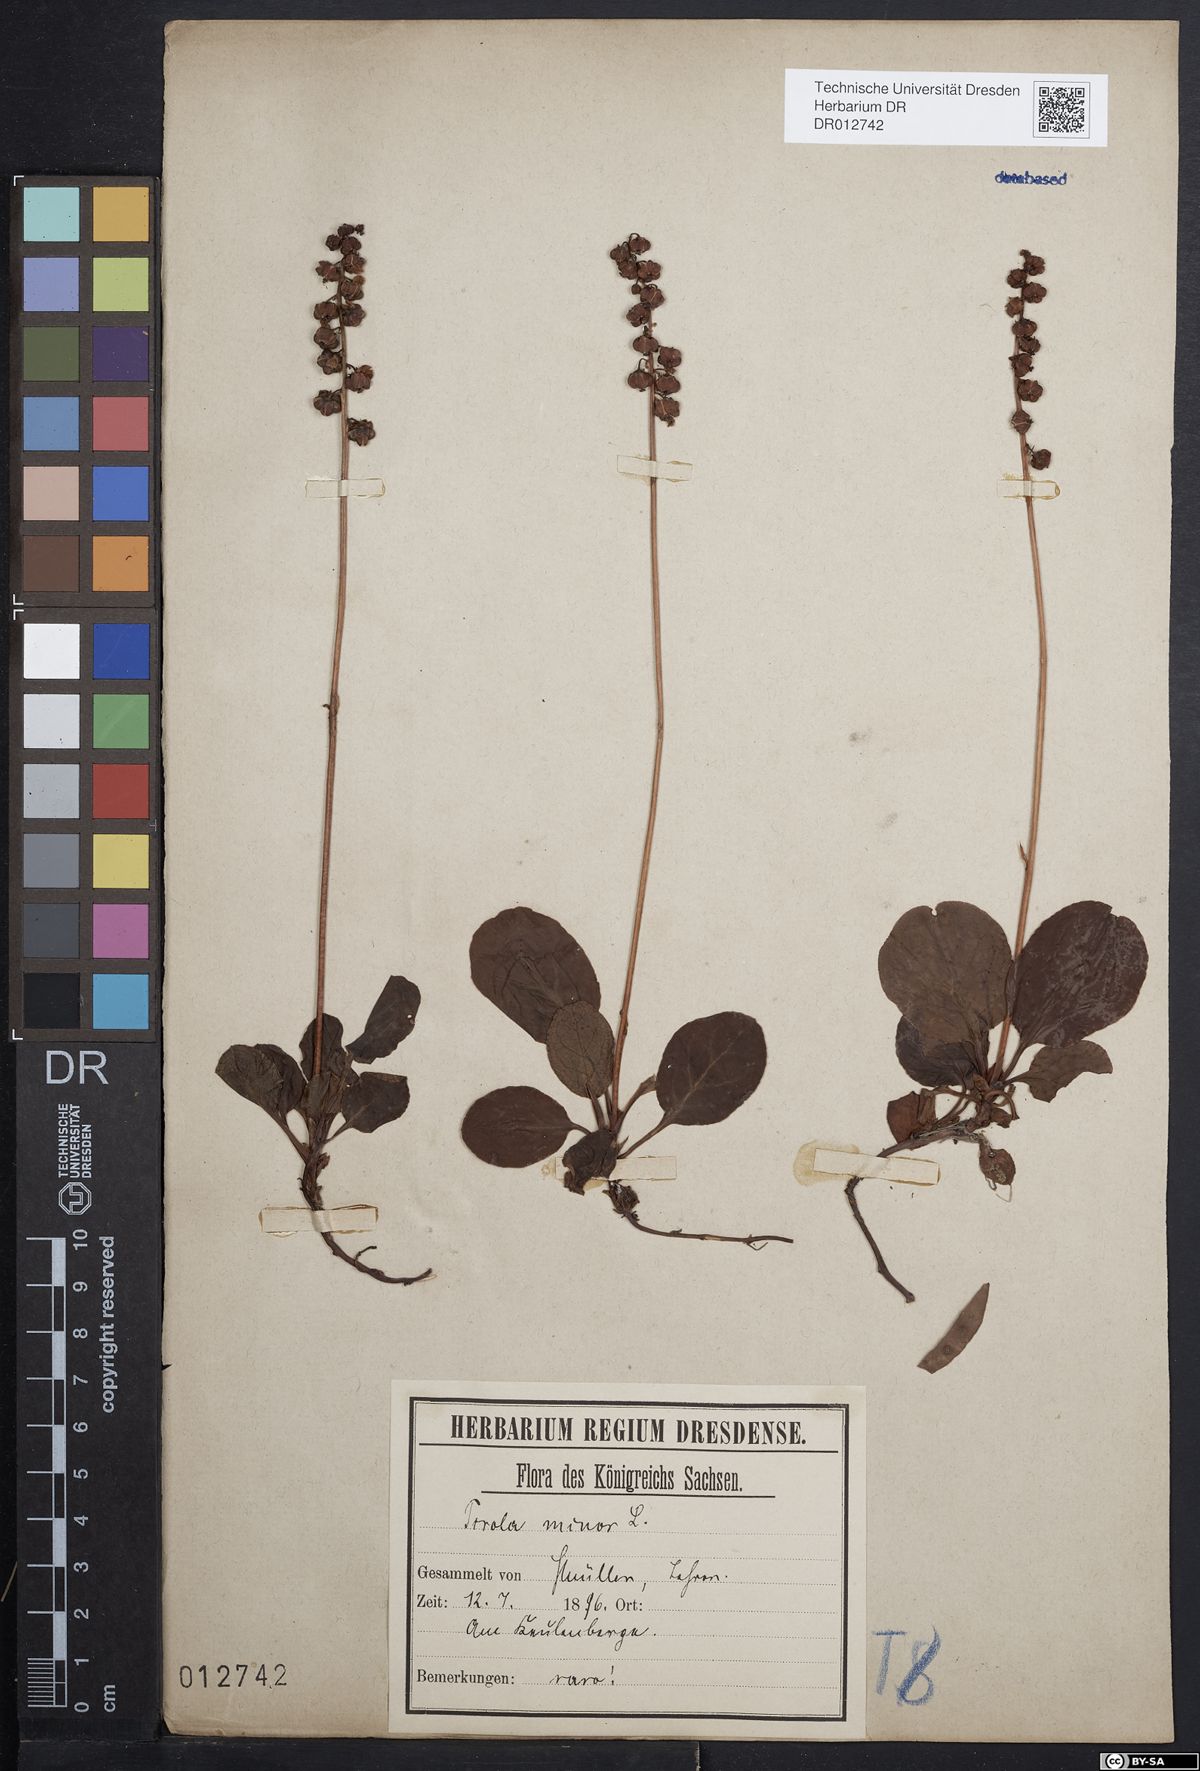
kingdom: Plantae
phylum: Tracheophyta
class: Magnoliopsida
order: Ericales
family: Ericaceae
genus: Pyrola
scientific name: Pyrola minor
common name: Common wintergreen
